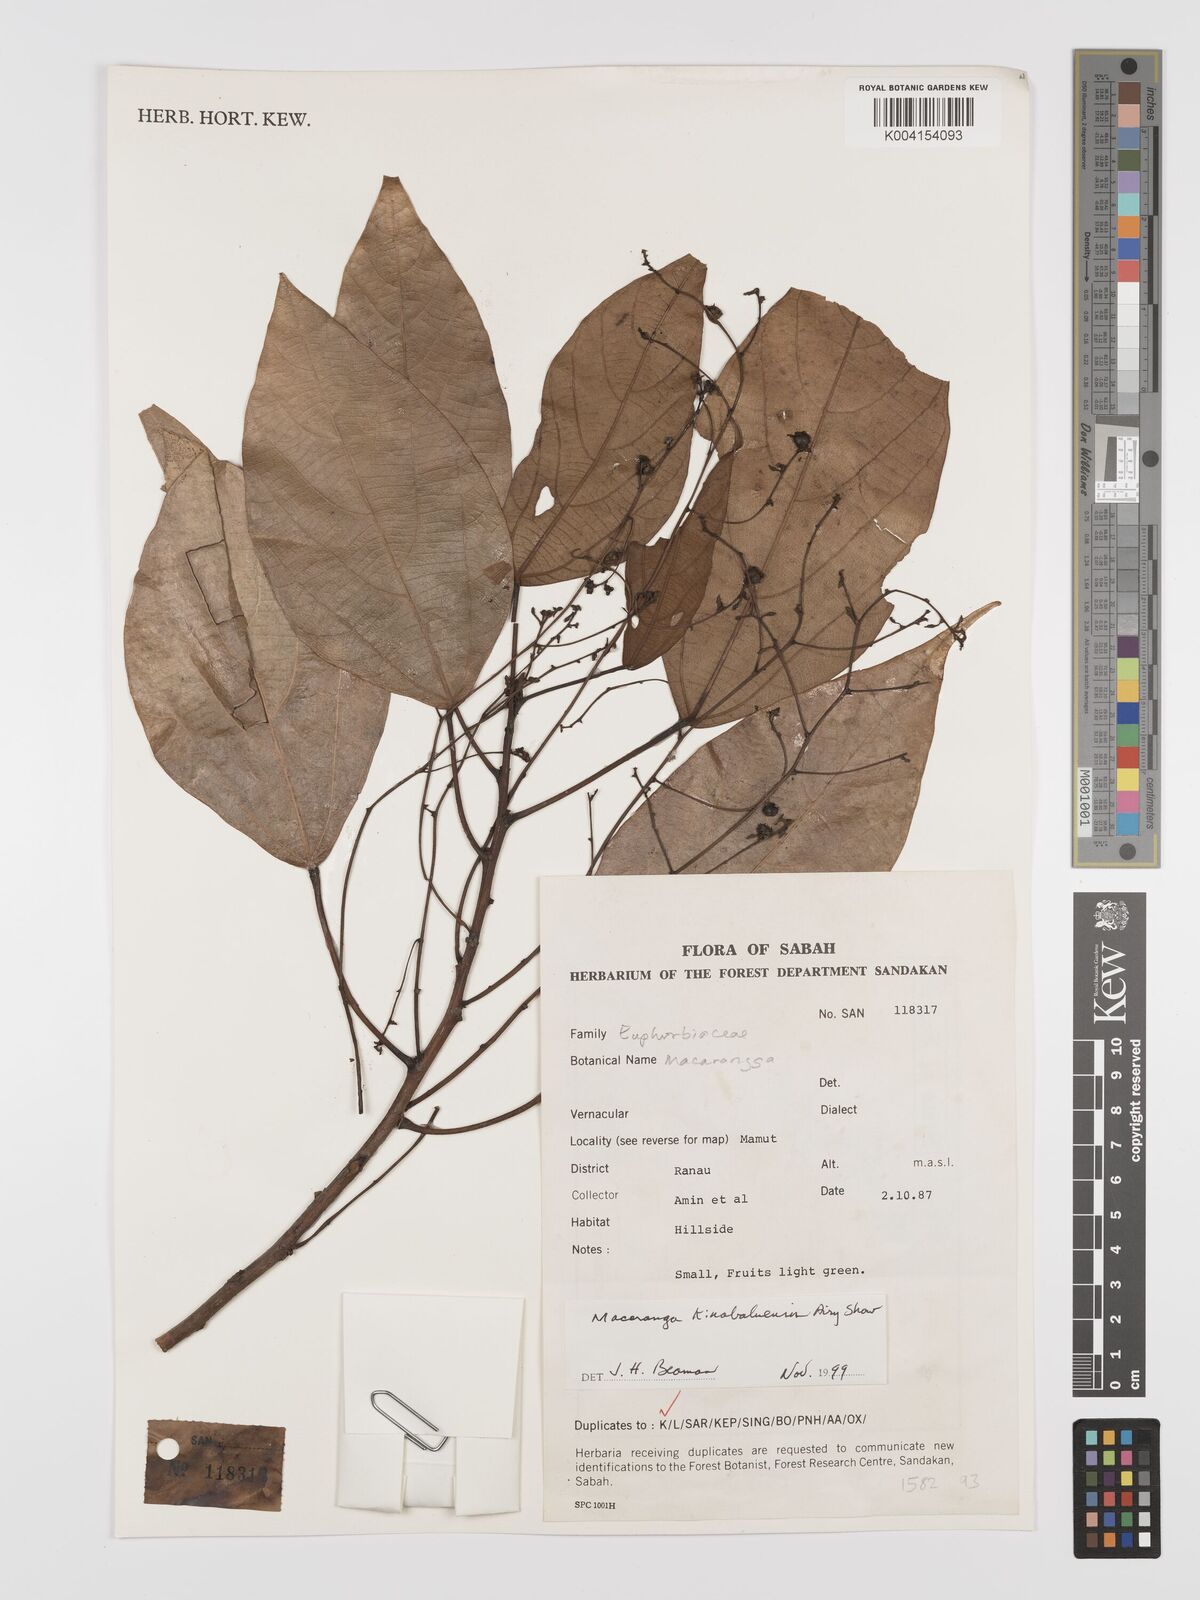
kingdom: Plantae
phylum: Tracheophyta
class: Magnoliopsida
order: Malpighiales
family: Euphorbiaceae
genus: Macaranga
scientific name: Macaranga kinabaluensis
